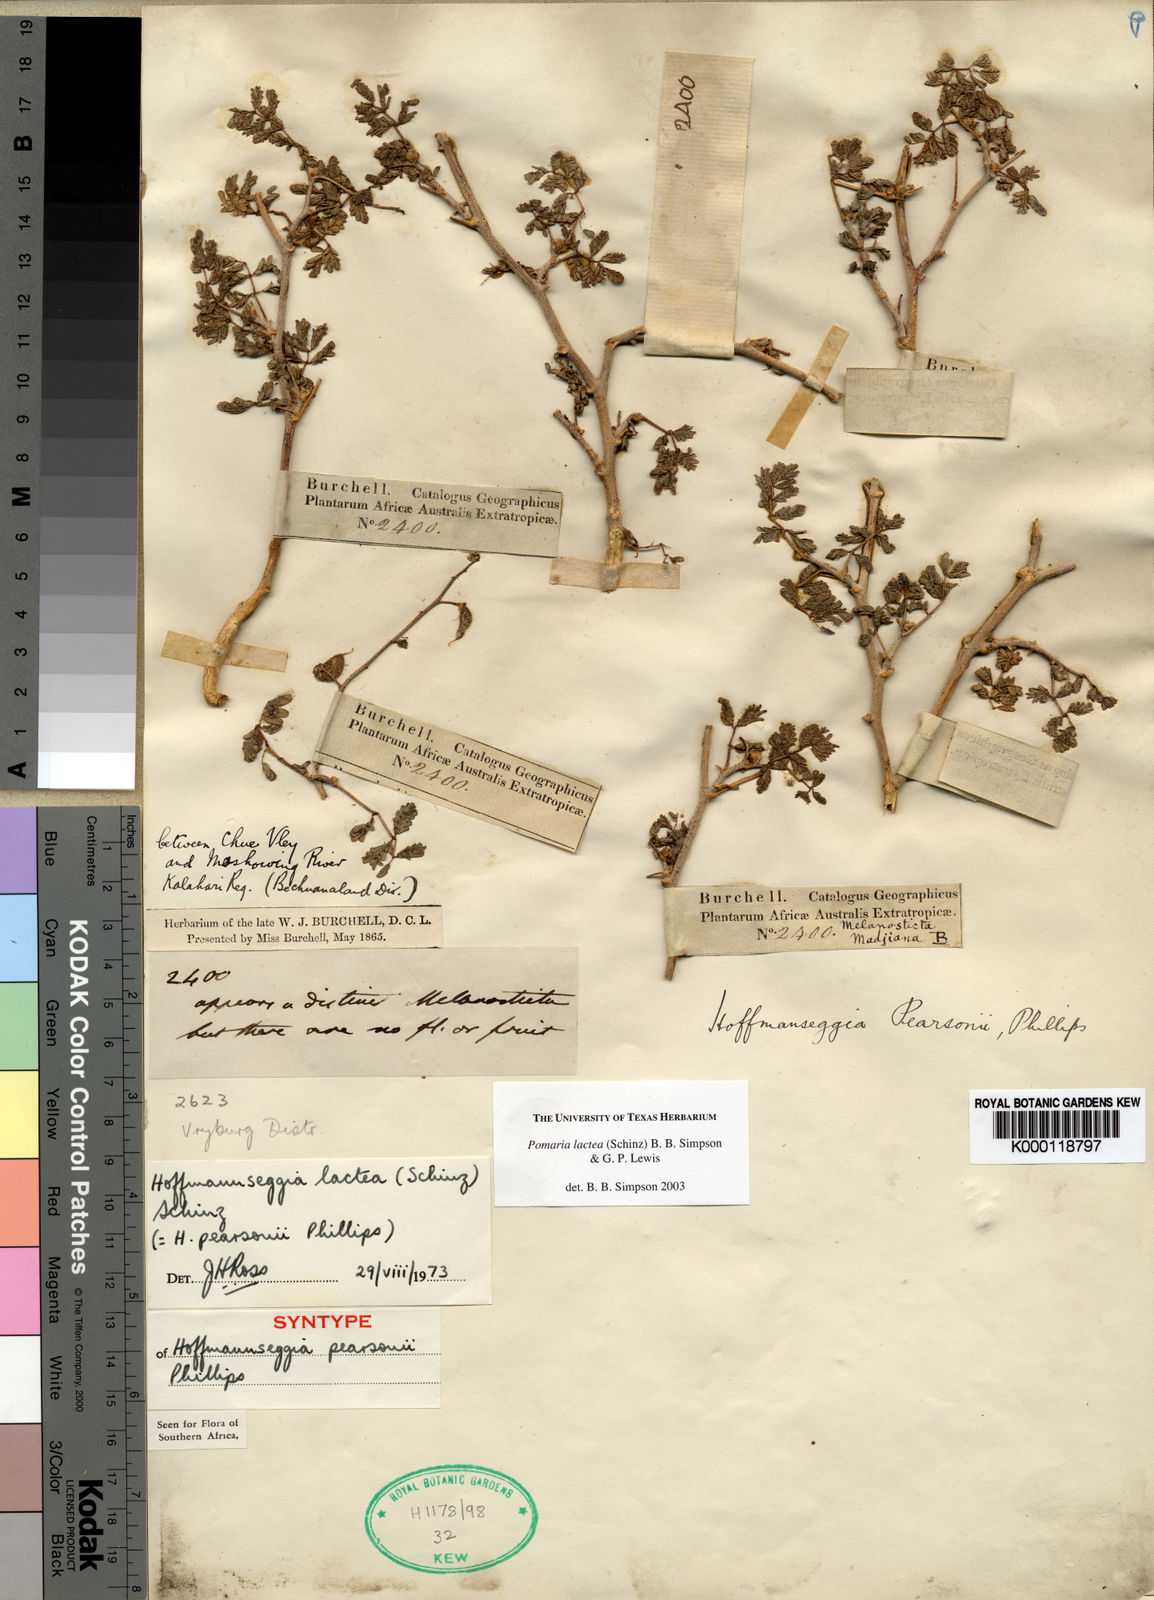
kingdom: Plantae
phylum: Tracheophyta
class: Magnoliopsida
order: Fabales
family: Fabaceae
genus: Pomaria
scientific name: Pomaria
